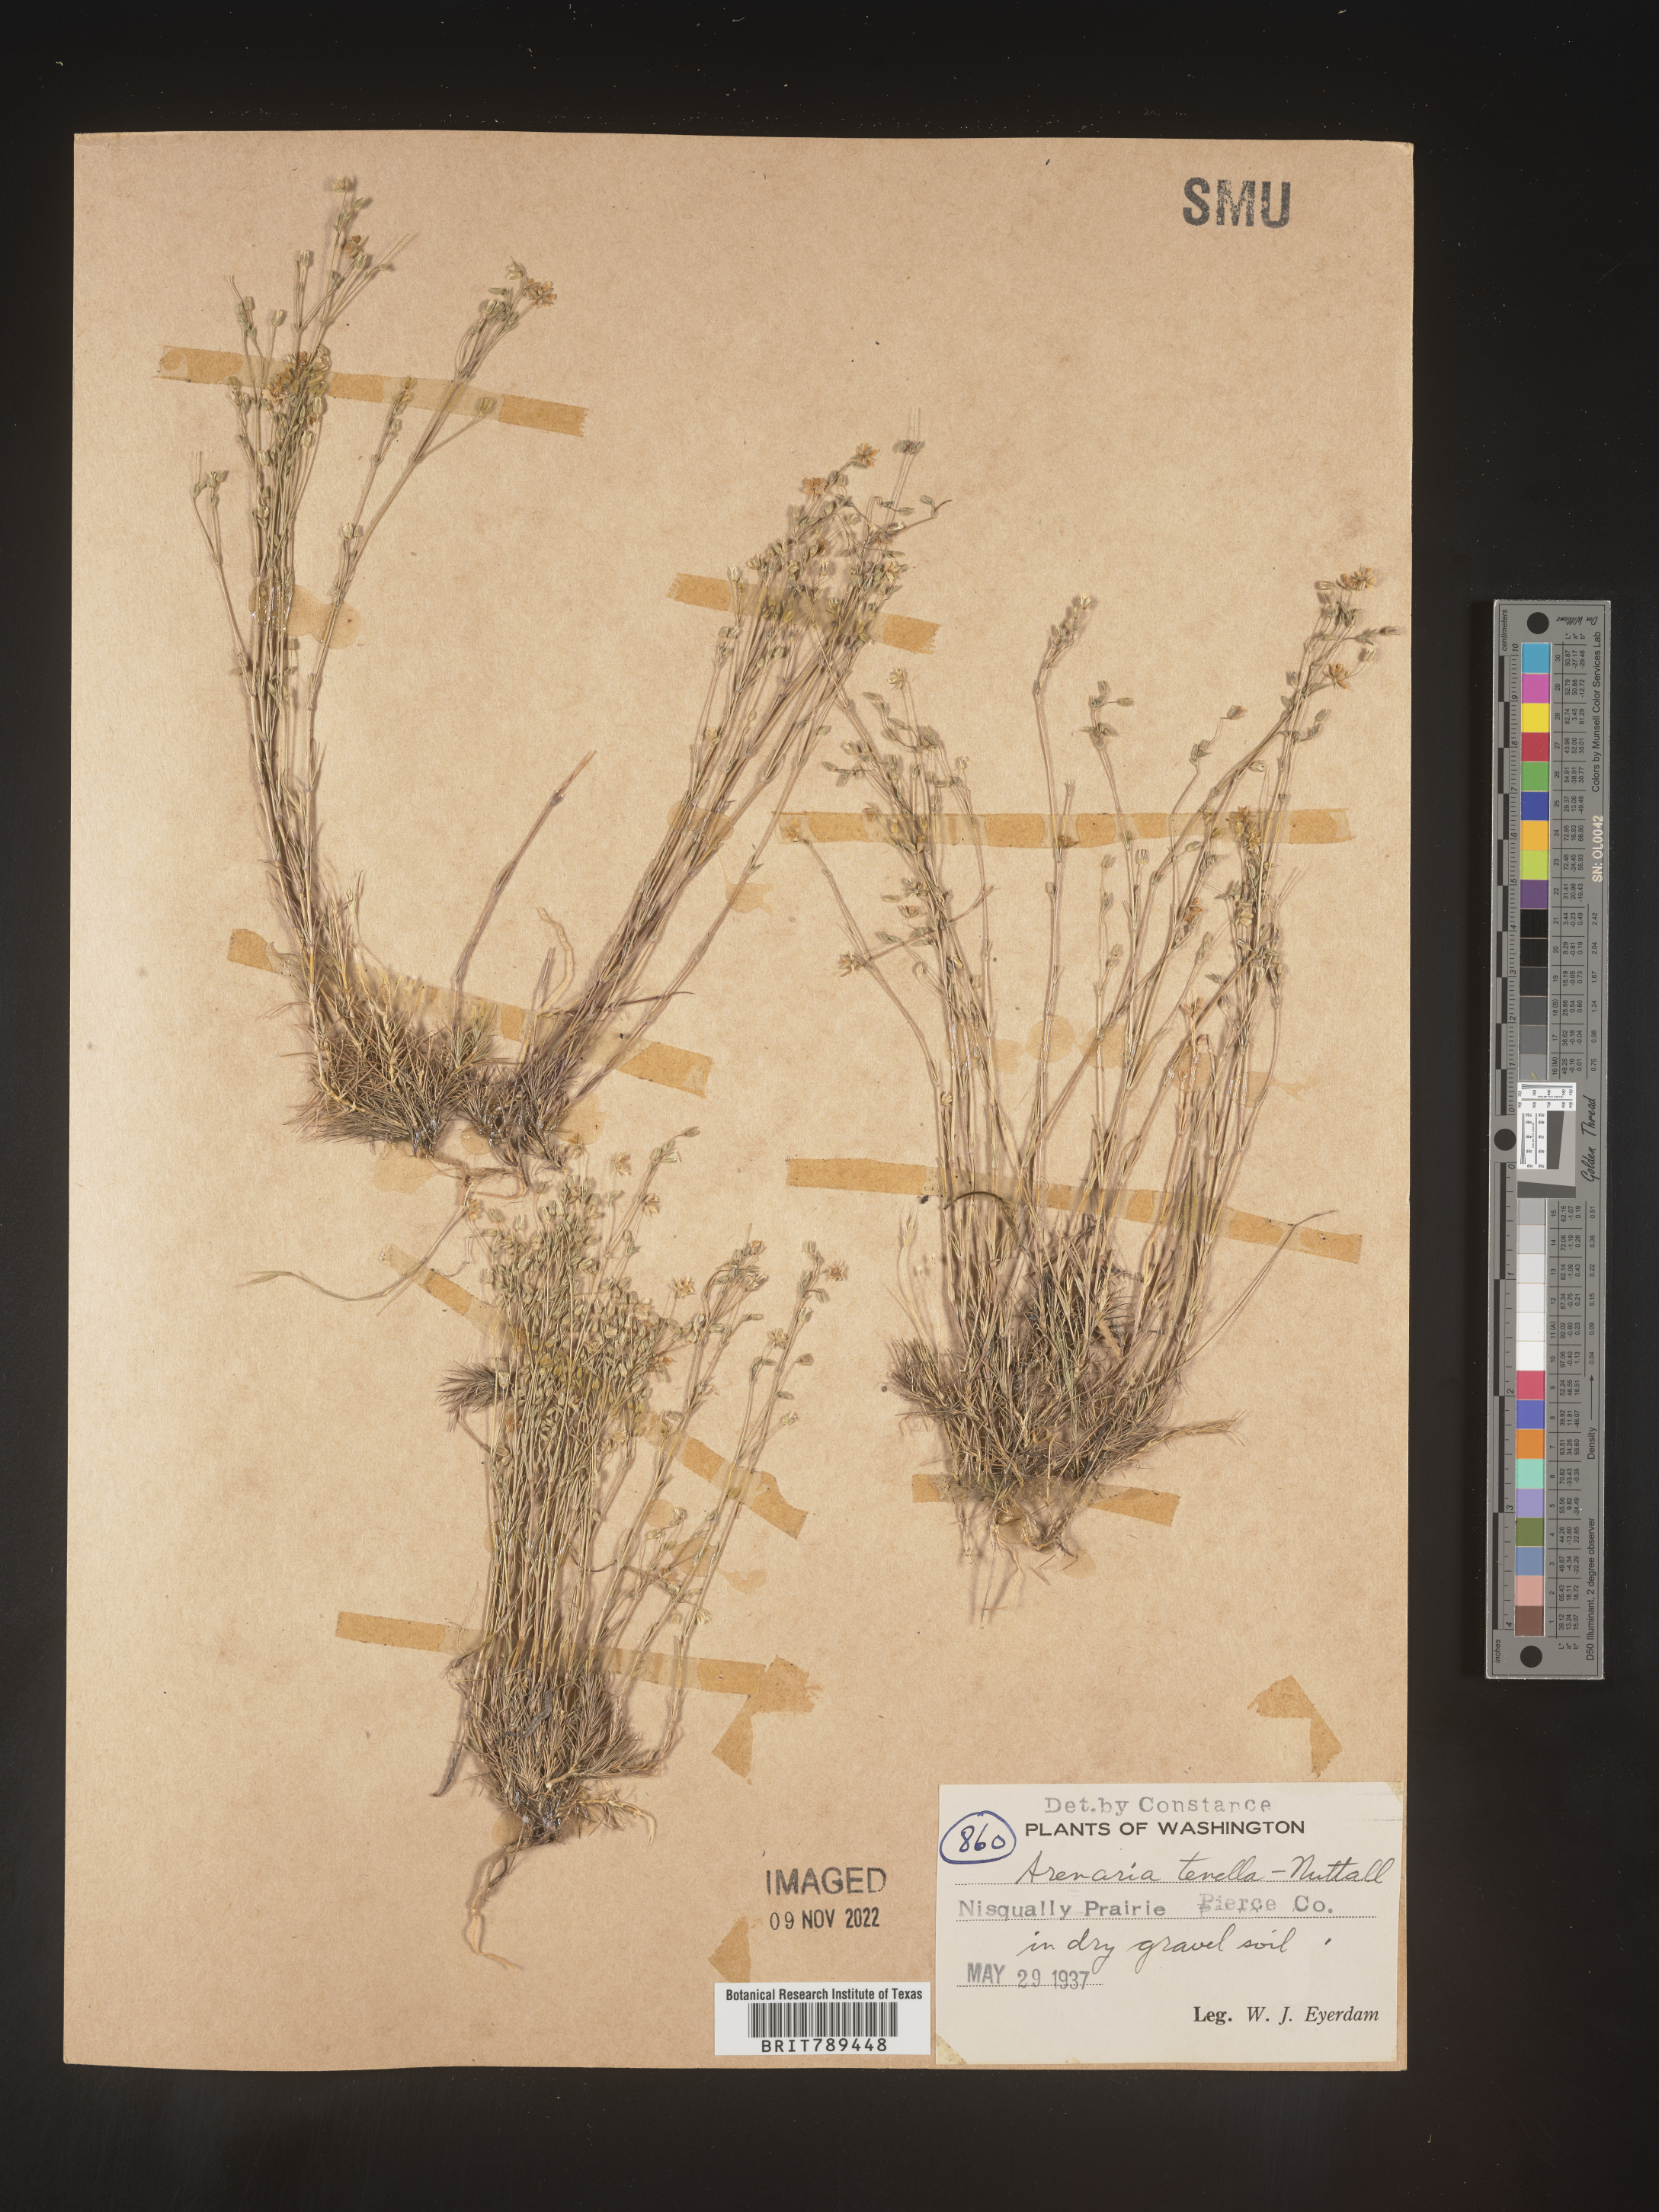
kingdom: Plantae
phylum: Tracheophyta
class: Magnoliopsida
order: Caryophyllales
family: Caryophyllaceae
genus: Arenaria
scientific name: Arenaria
